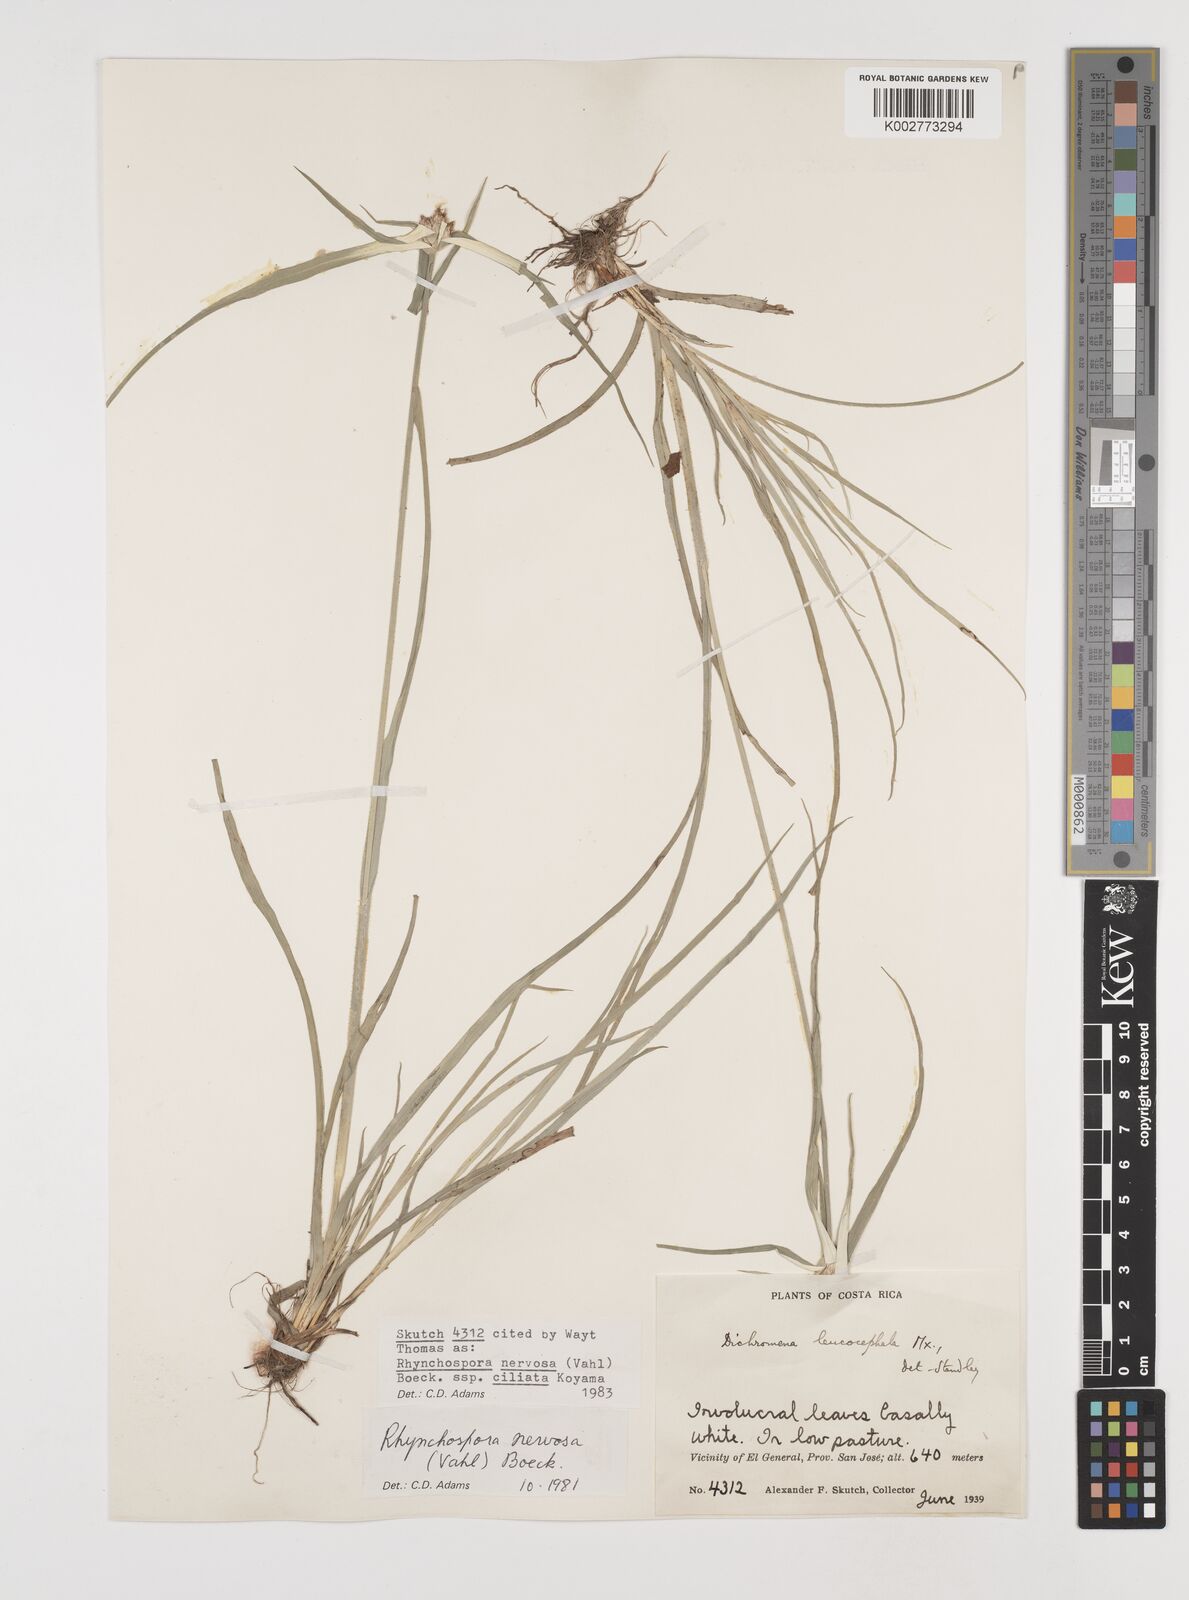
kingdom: Plantae
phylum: Tracheophyta
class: Liliopsida
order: Poales
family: Cyperaceae
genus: Rhynchospora
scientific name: Rhynchospora pura
